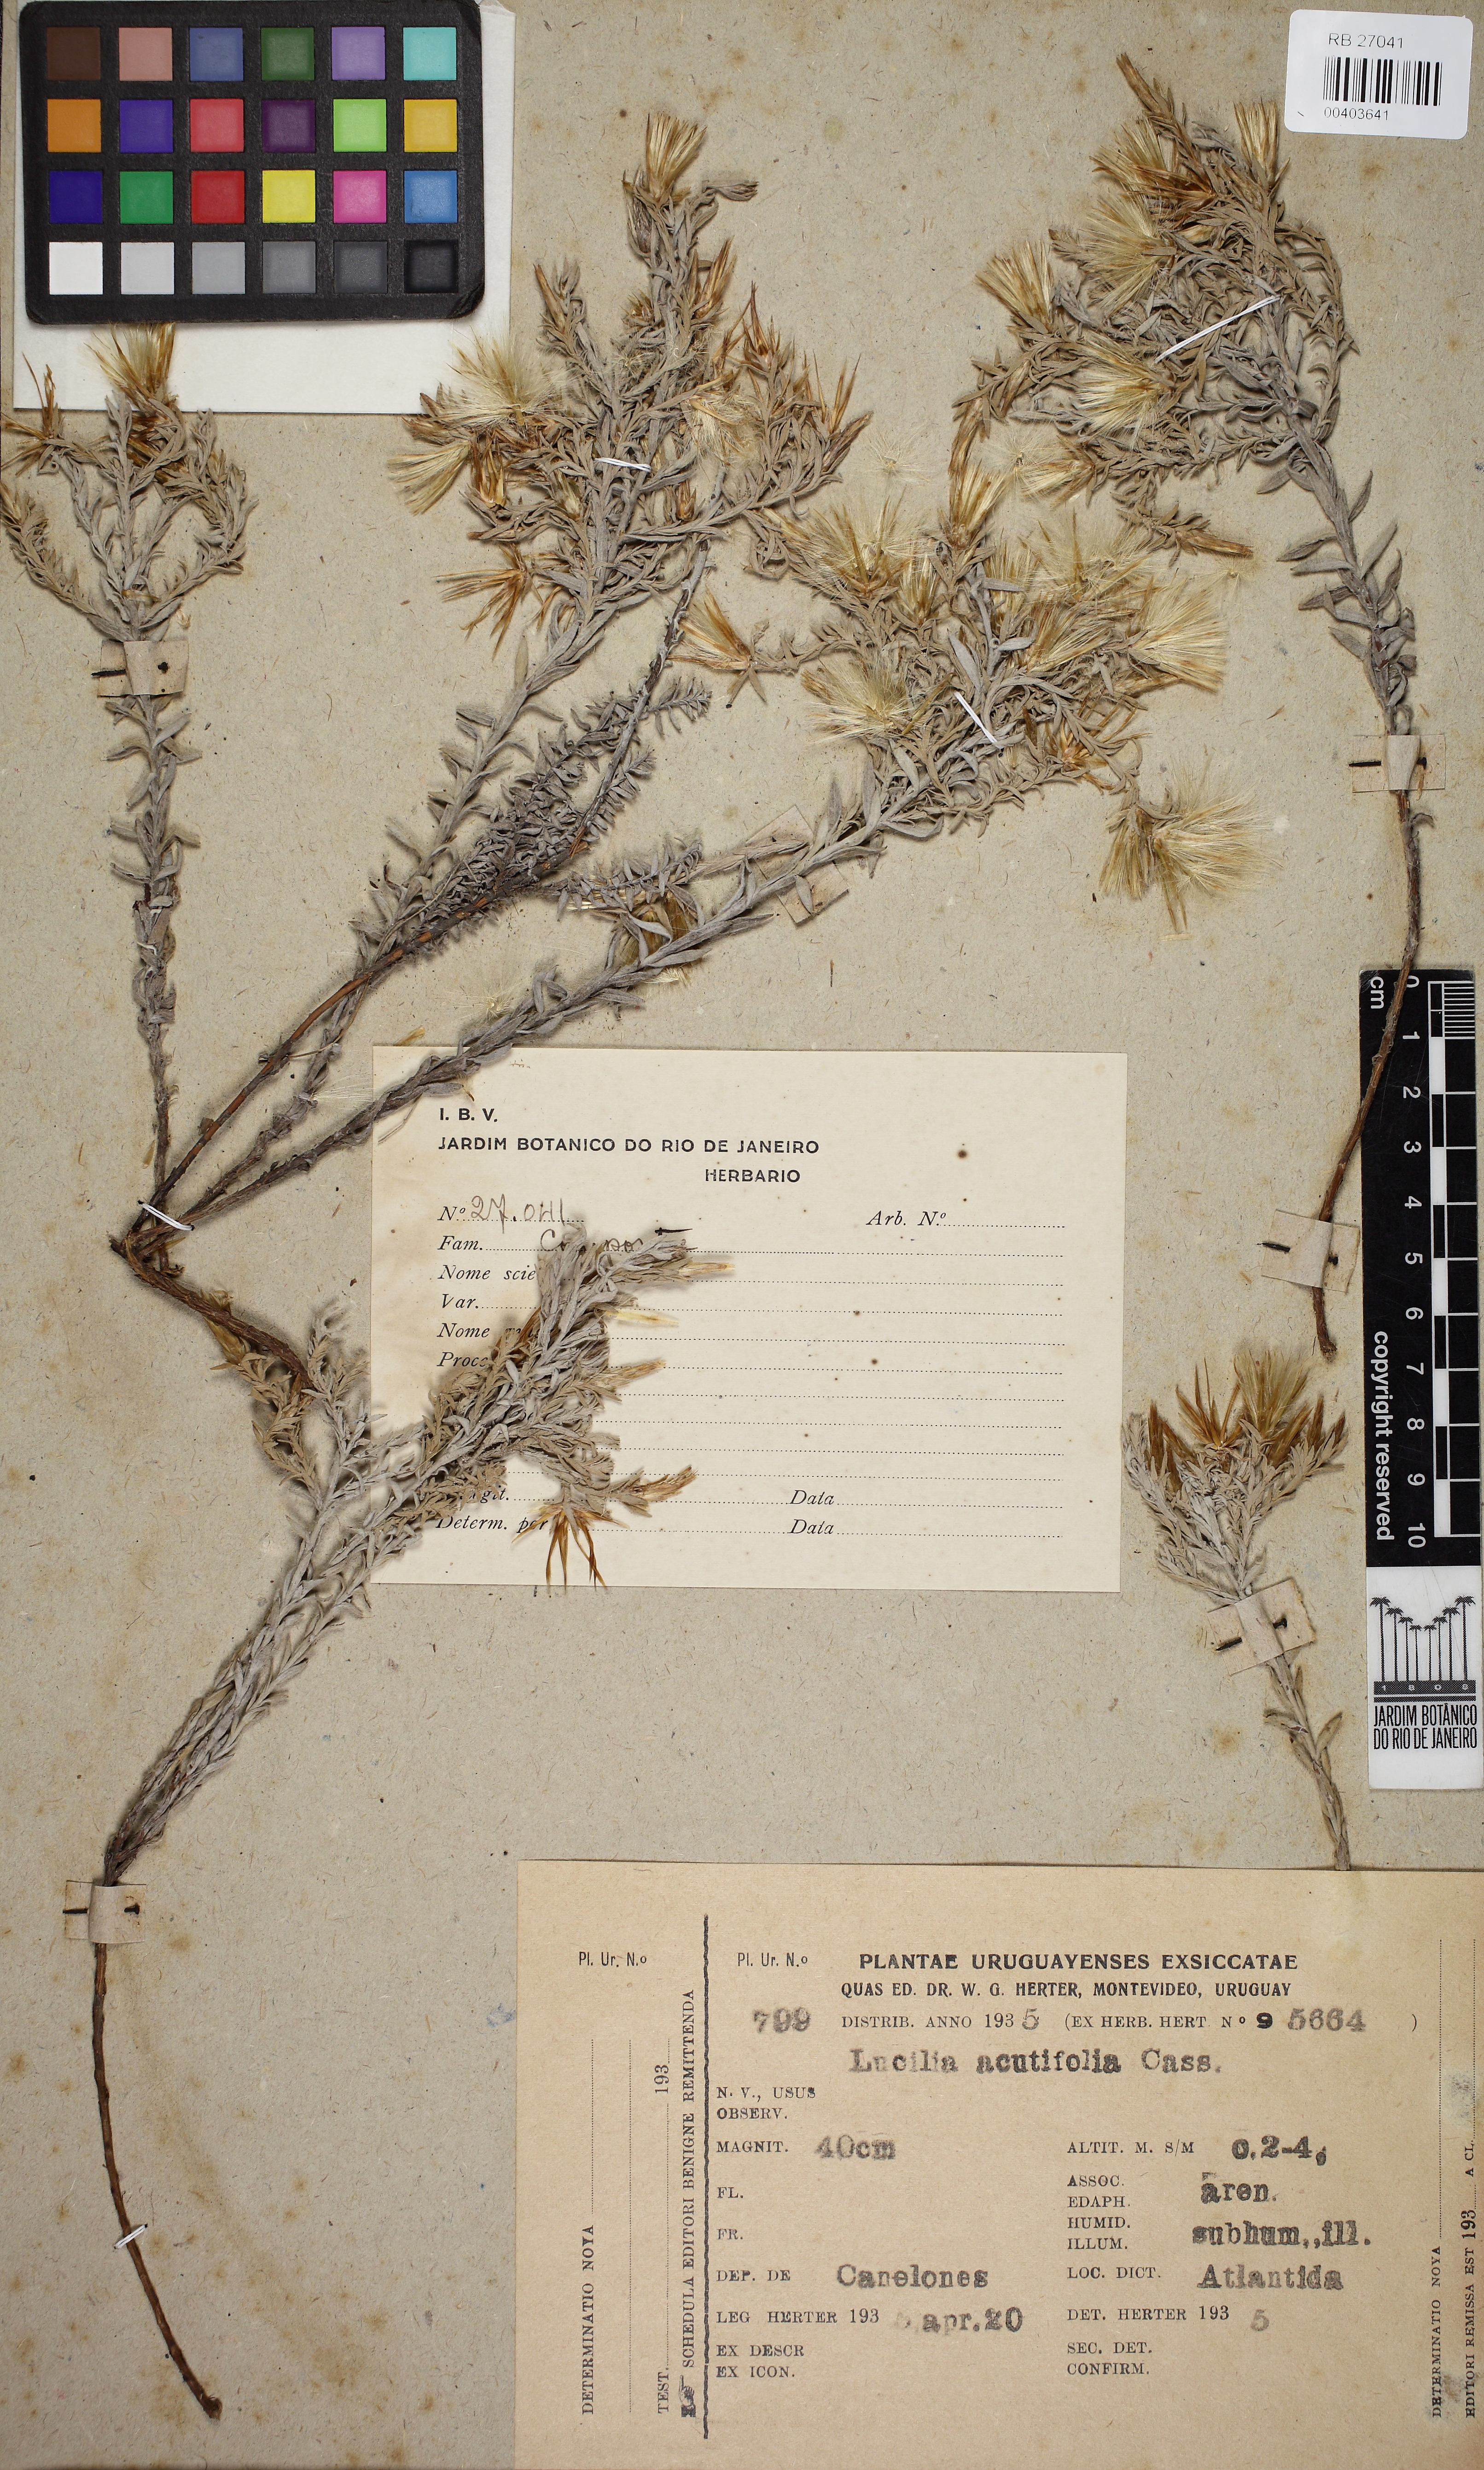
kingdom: Plantae
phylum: Tracheophyta
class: Magnoliopsida
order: Asterales
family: Asteraceae
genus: Lucilia
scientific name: Lucilia acutifolia
